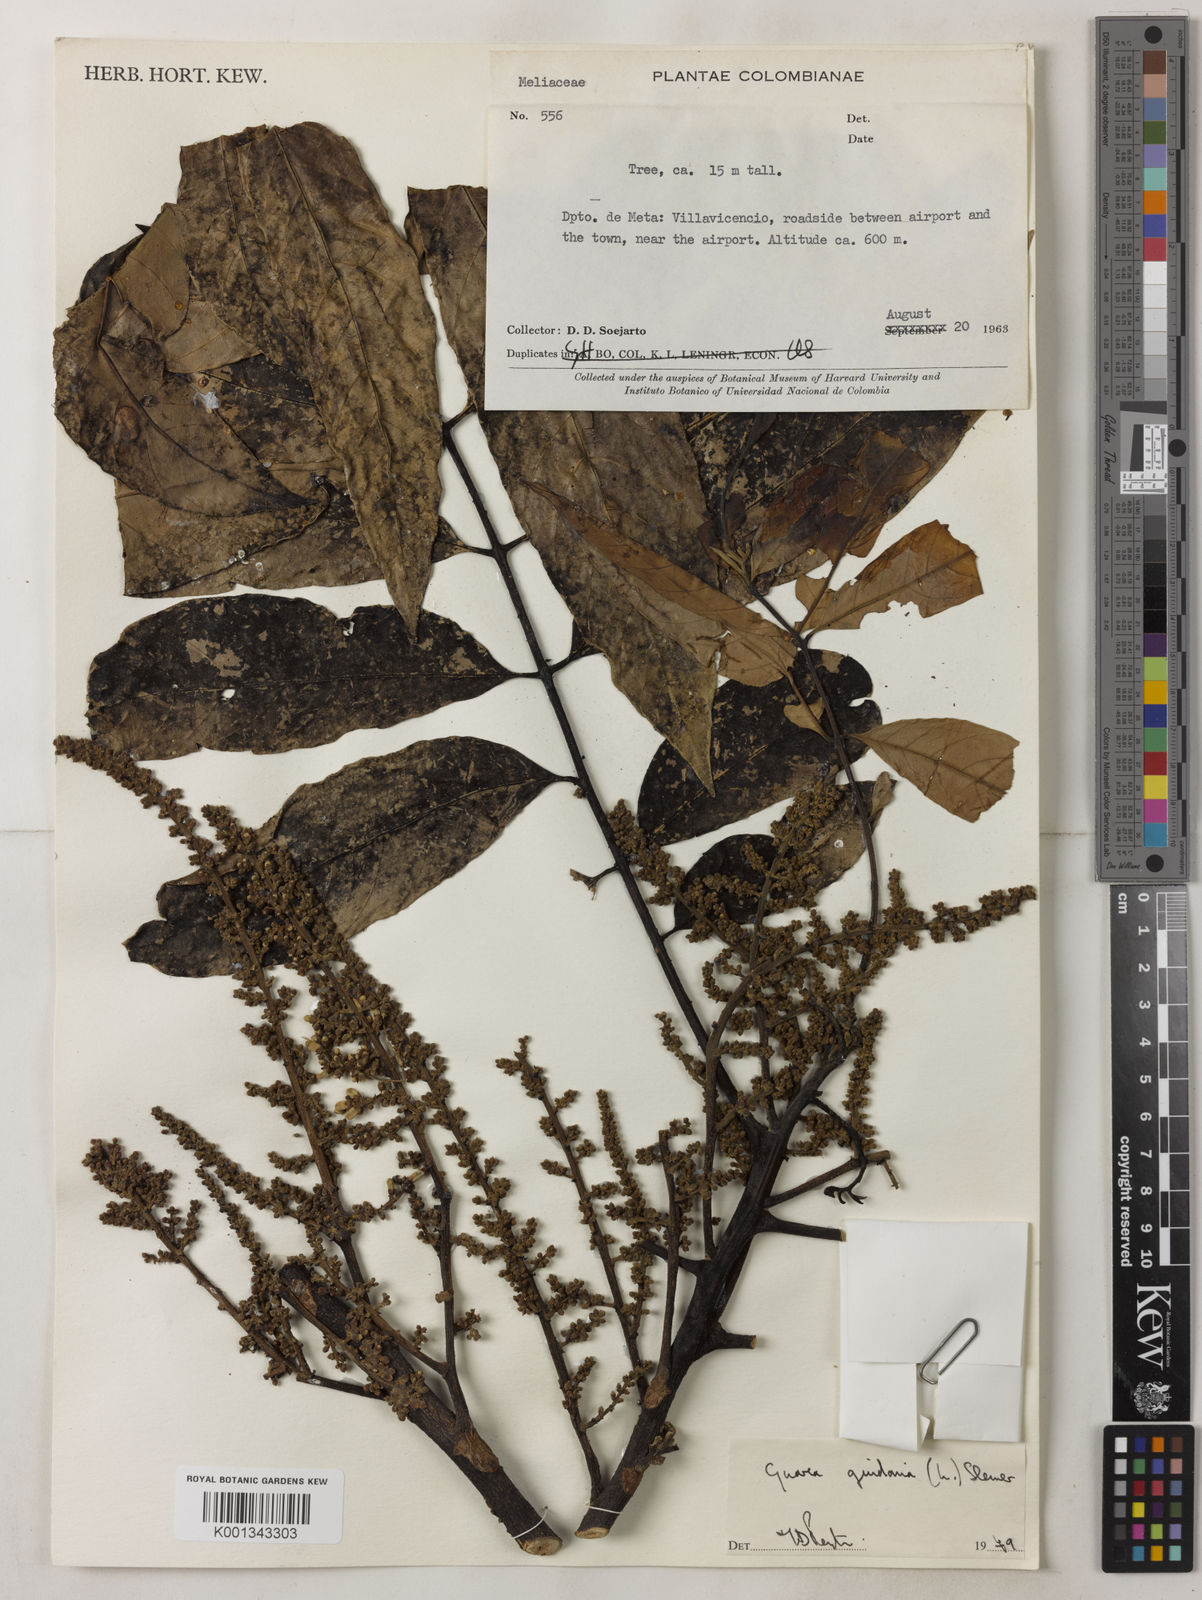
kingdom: Plantae
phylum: Tracheophyta
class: Magnoliopsida
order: Sapindales
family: Meliaceae
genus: Guarea
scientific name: Guarea guidonia
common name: American muskwood
